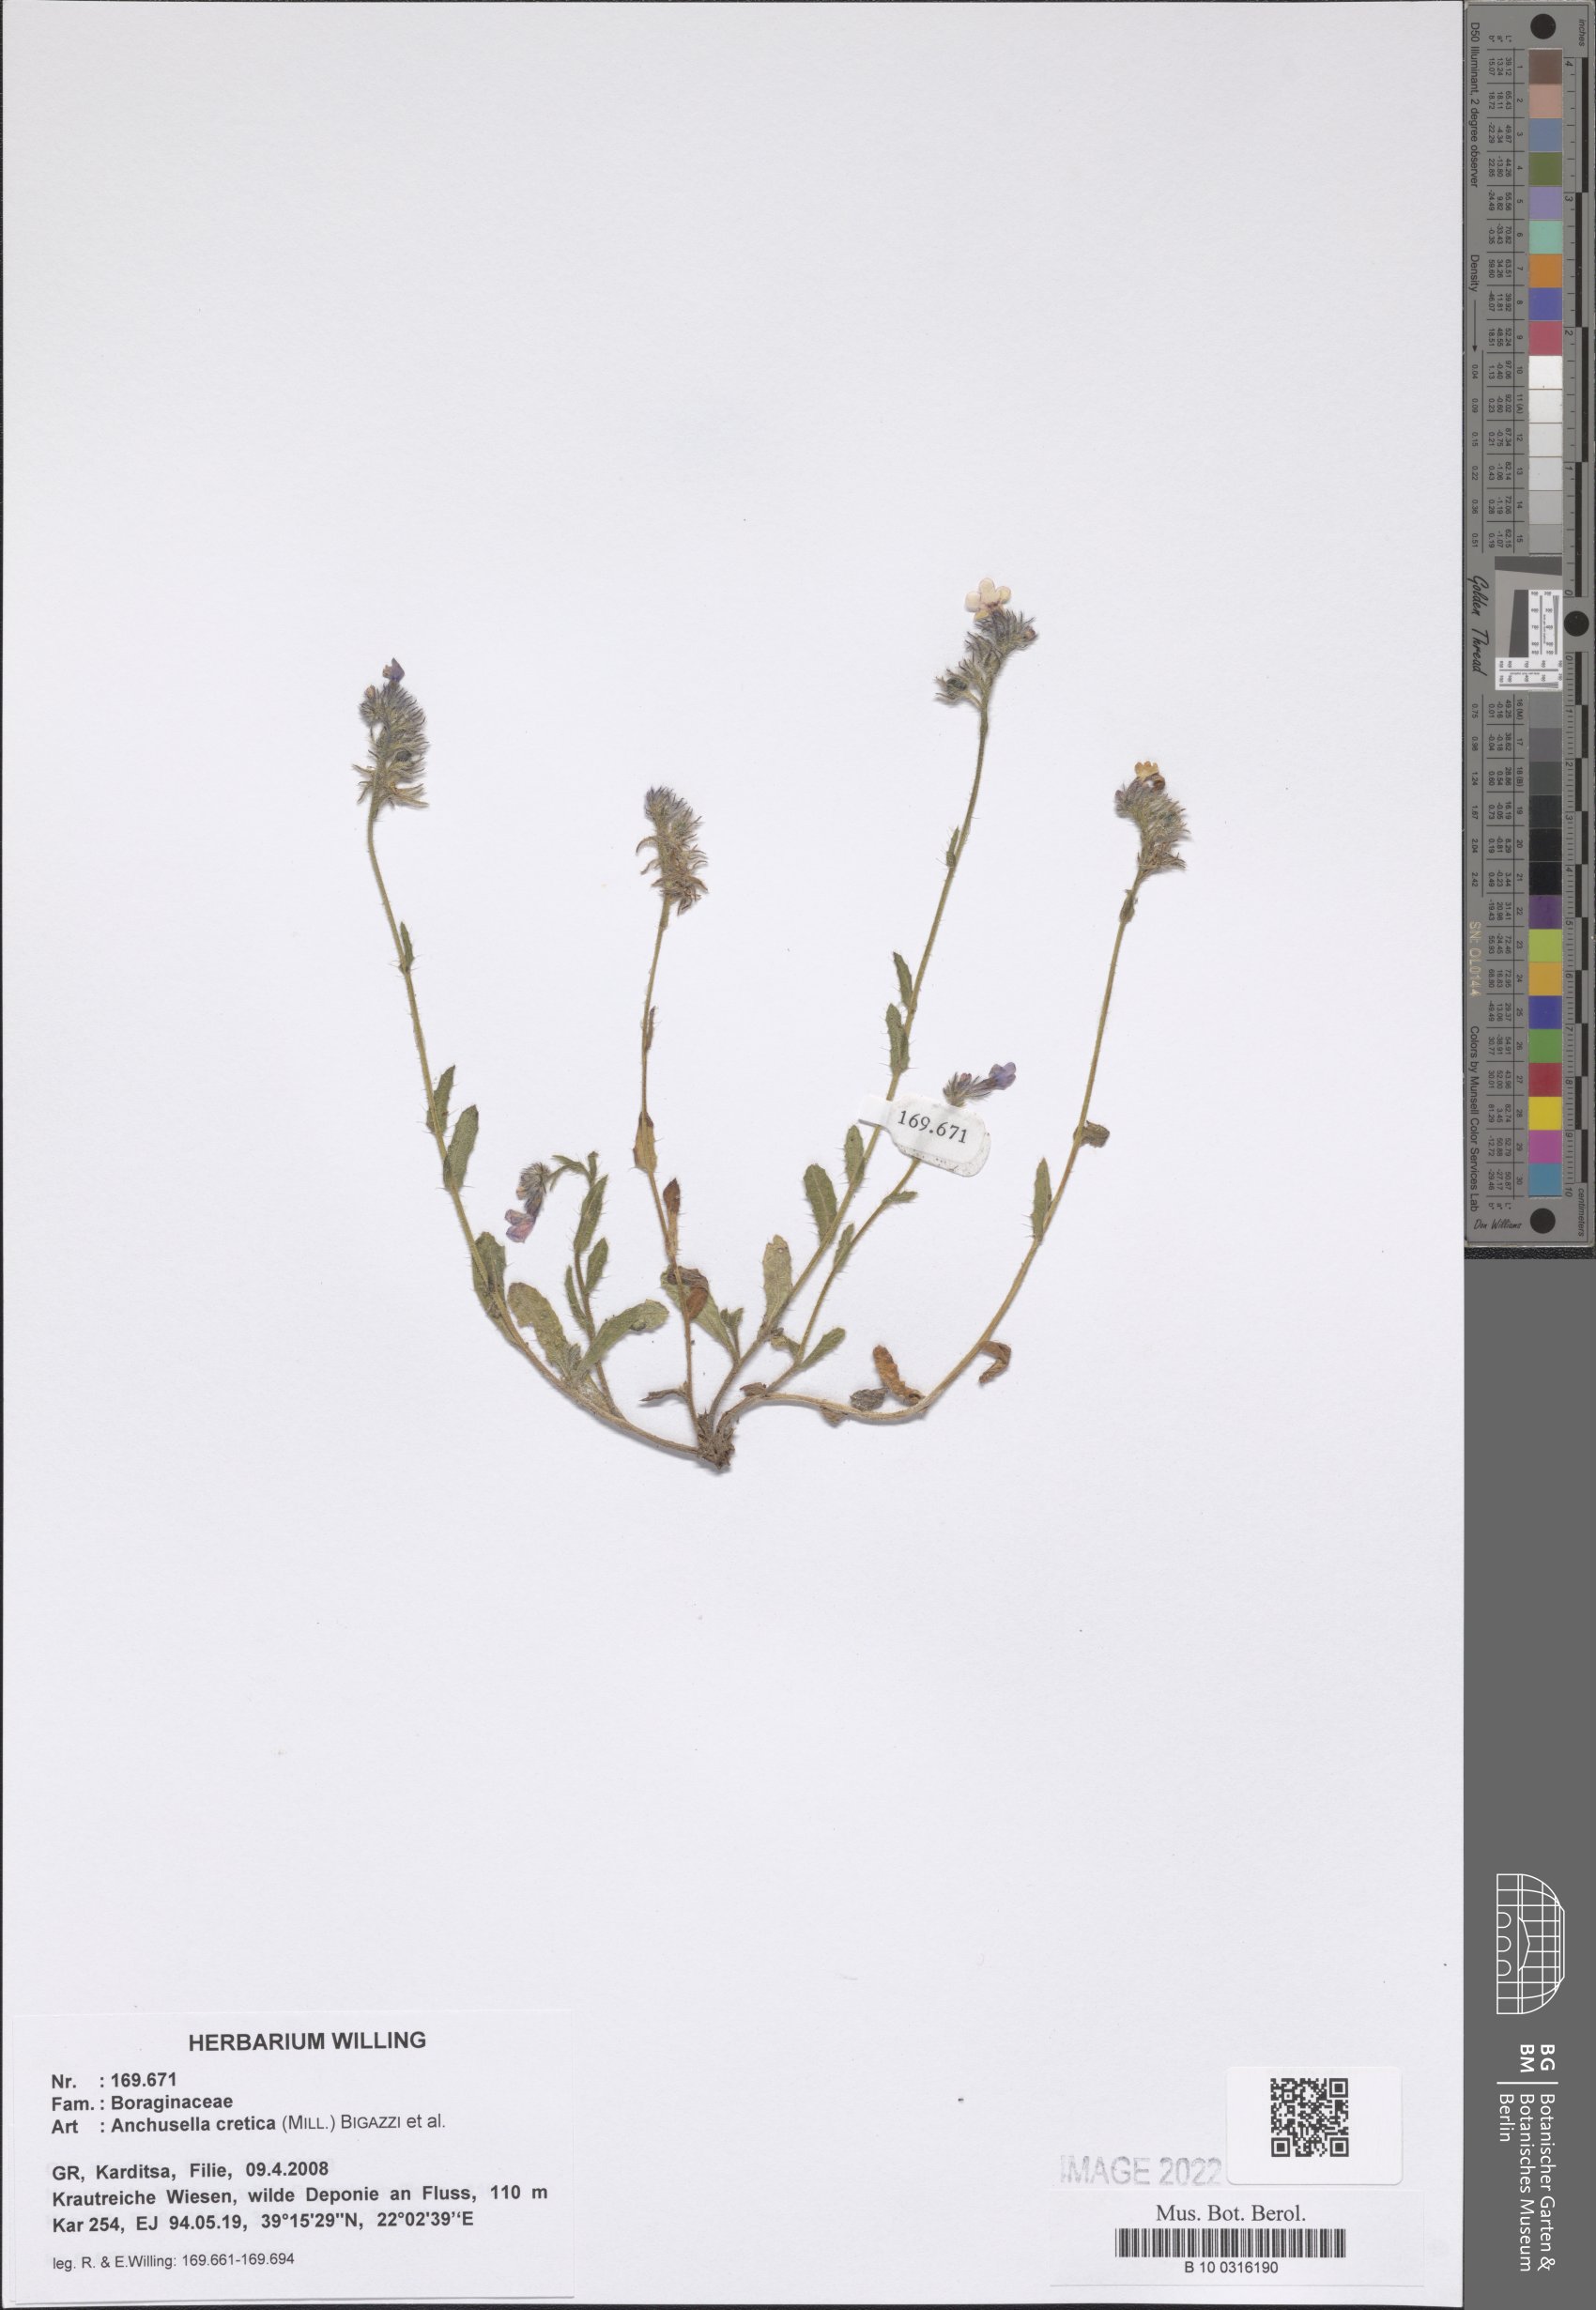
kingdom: Plantae
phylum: Tracheophyta
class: Magnoliopsida
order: Boraginales
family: Boraginaceae
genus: Anchusella
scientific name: Anchusella cretica
